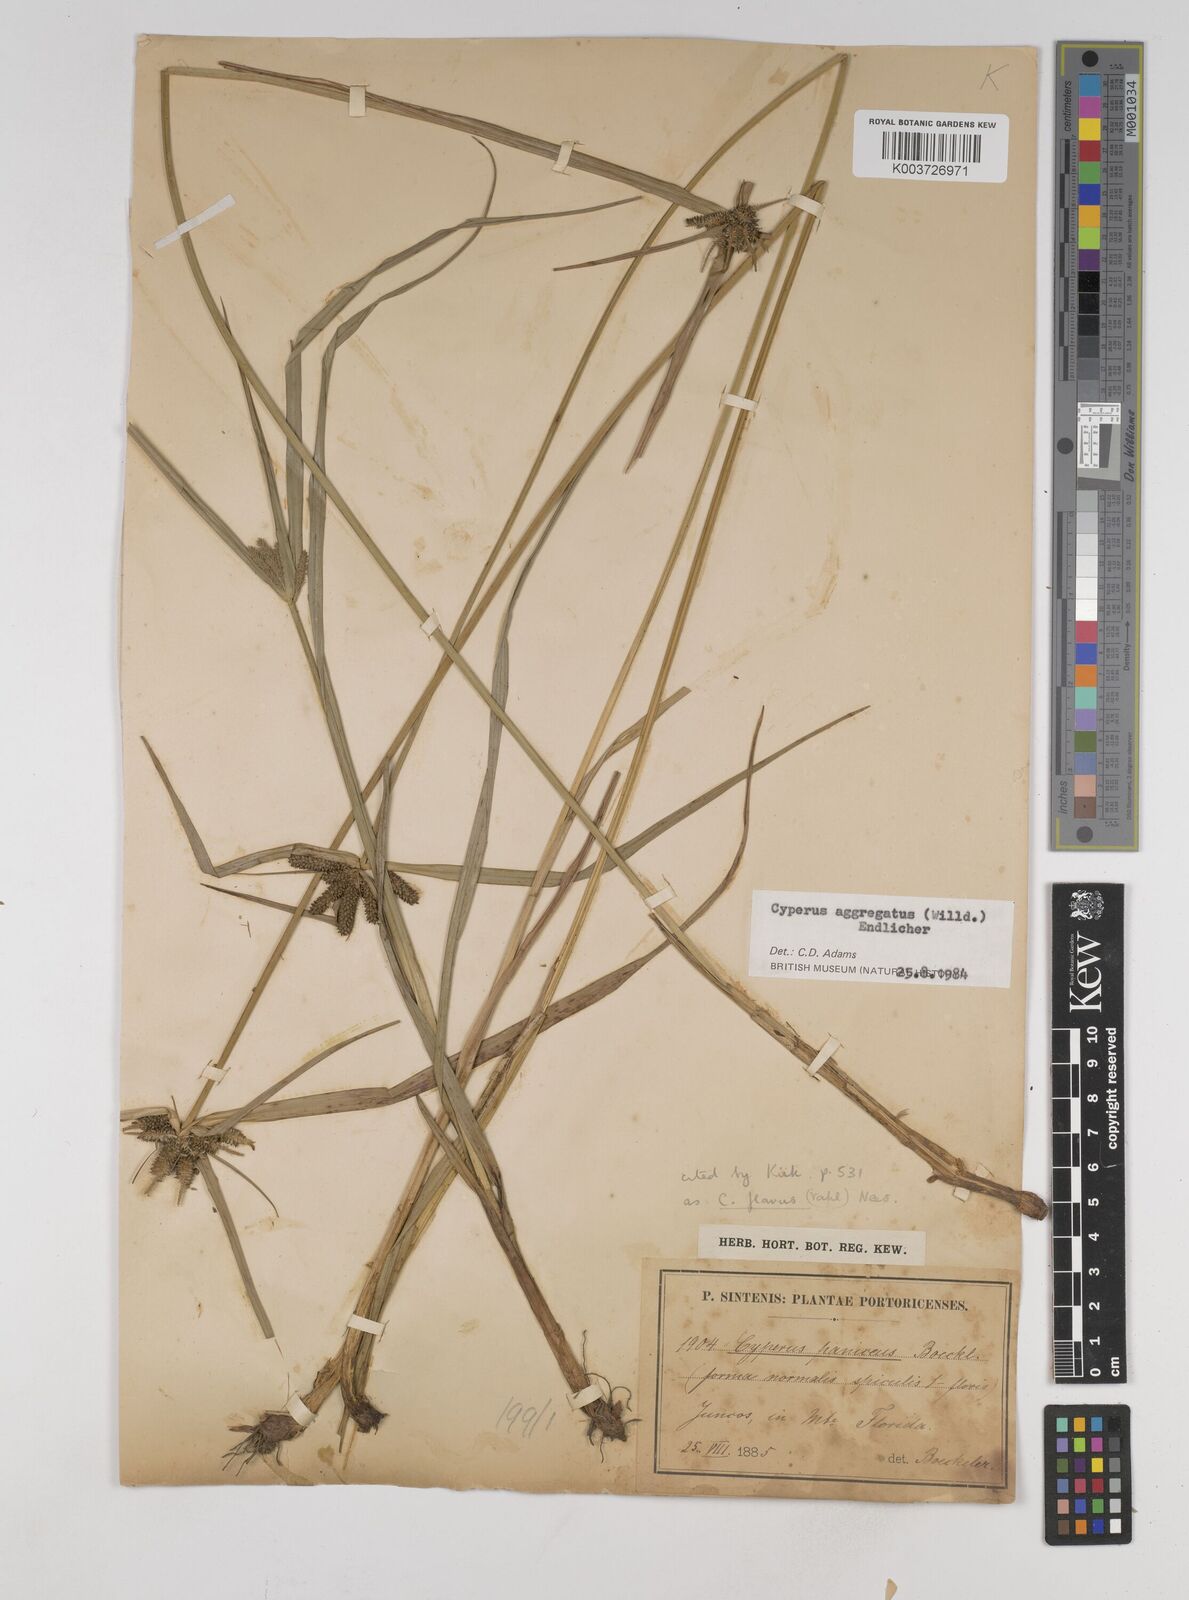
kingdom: Plantae
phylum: Tracheophyta
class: Liliopsida
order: Poales
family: Cyperaceae
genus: Cyperus
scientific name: Cyperus aggregatus
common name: Inflatedscale flatsedge
